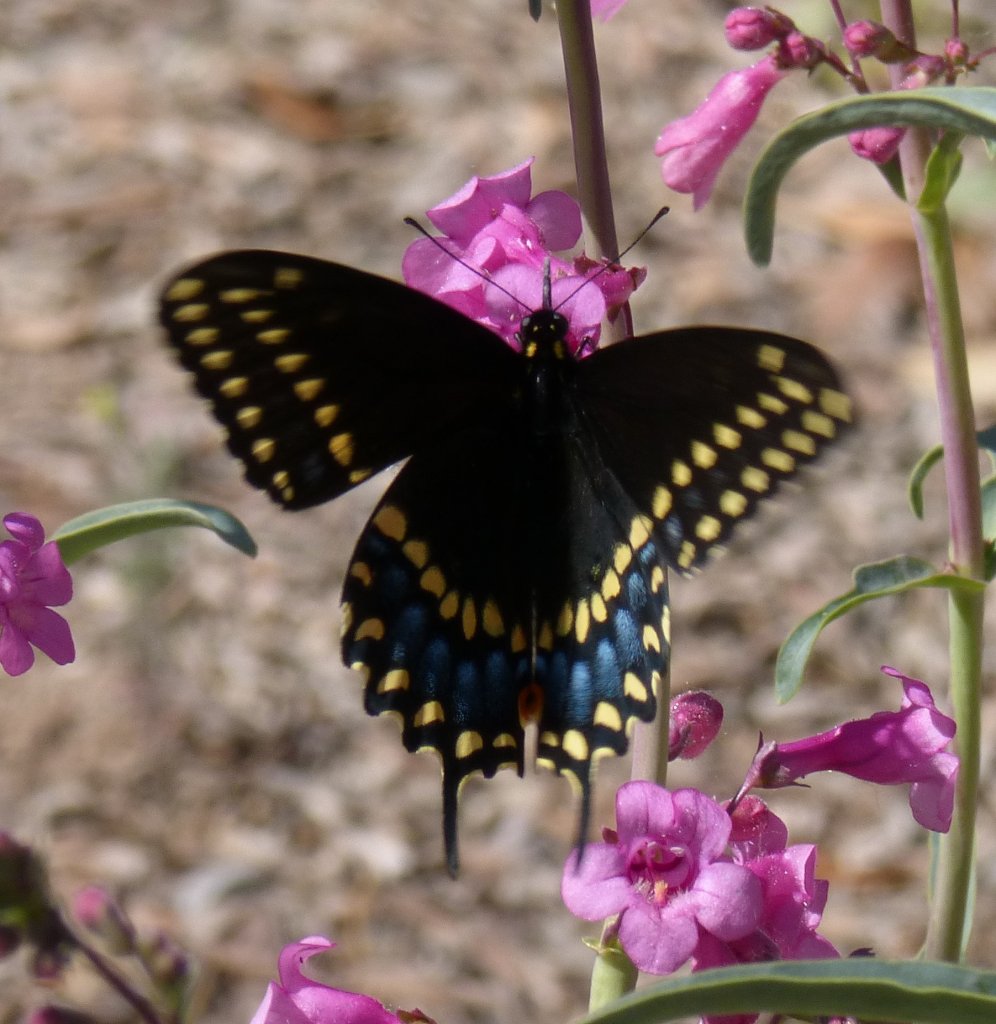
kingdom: Animalia
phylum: Arthropoda
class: Insecta
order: Lepidoptera
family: Papilionidae
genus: Papilio
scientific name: Papilio polyxenes
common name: Black Swallowtail
